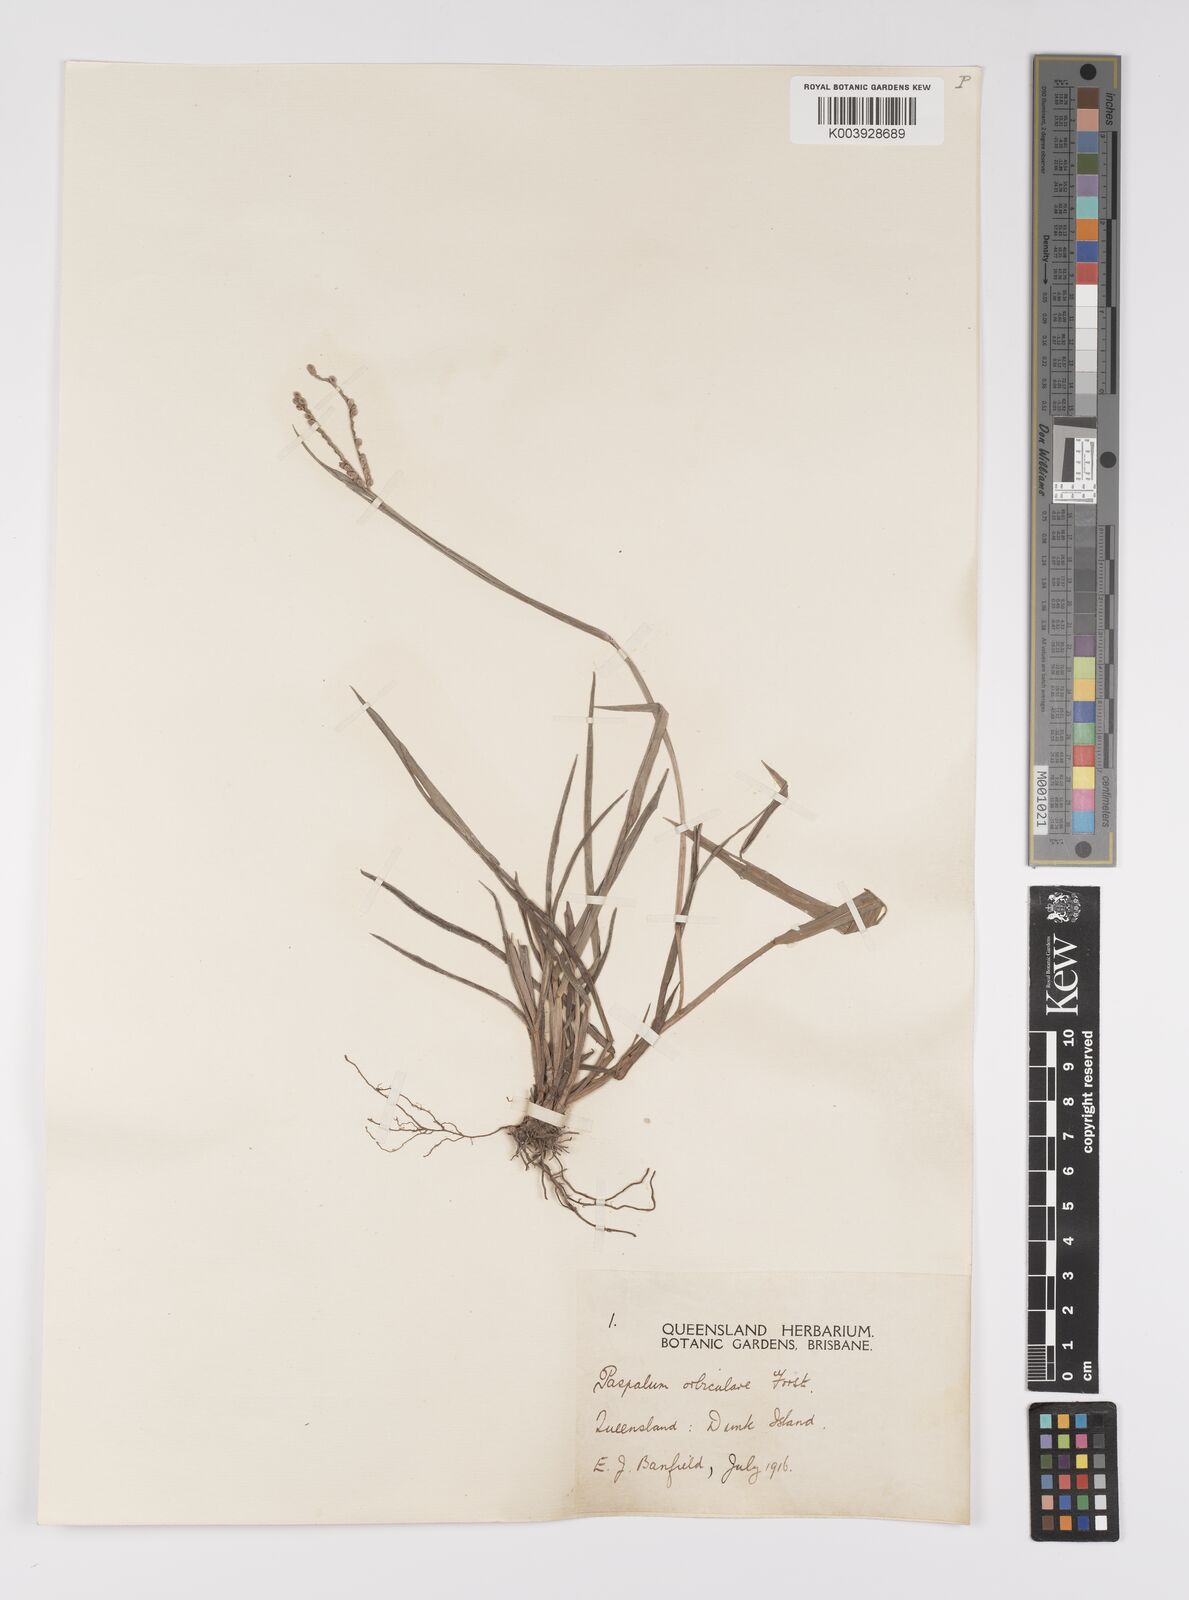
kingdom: Plantae
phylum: Tracheophyta
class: Liliopsida
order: Poales
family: Poaceae
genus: Paspalum
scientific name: Paspalum scrobiculatum
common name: Kodo millet
